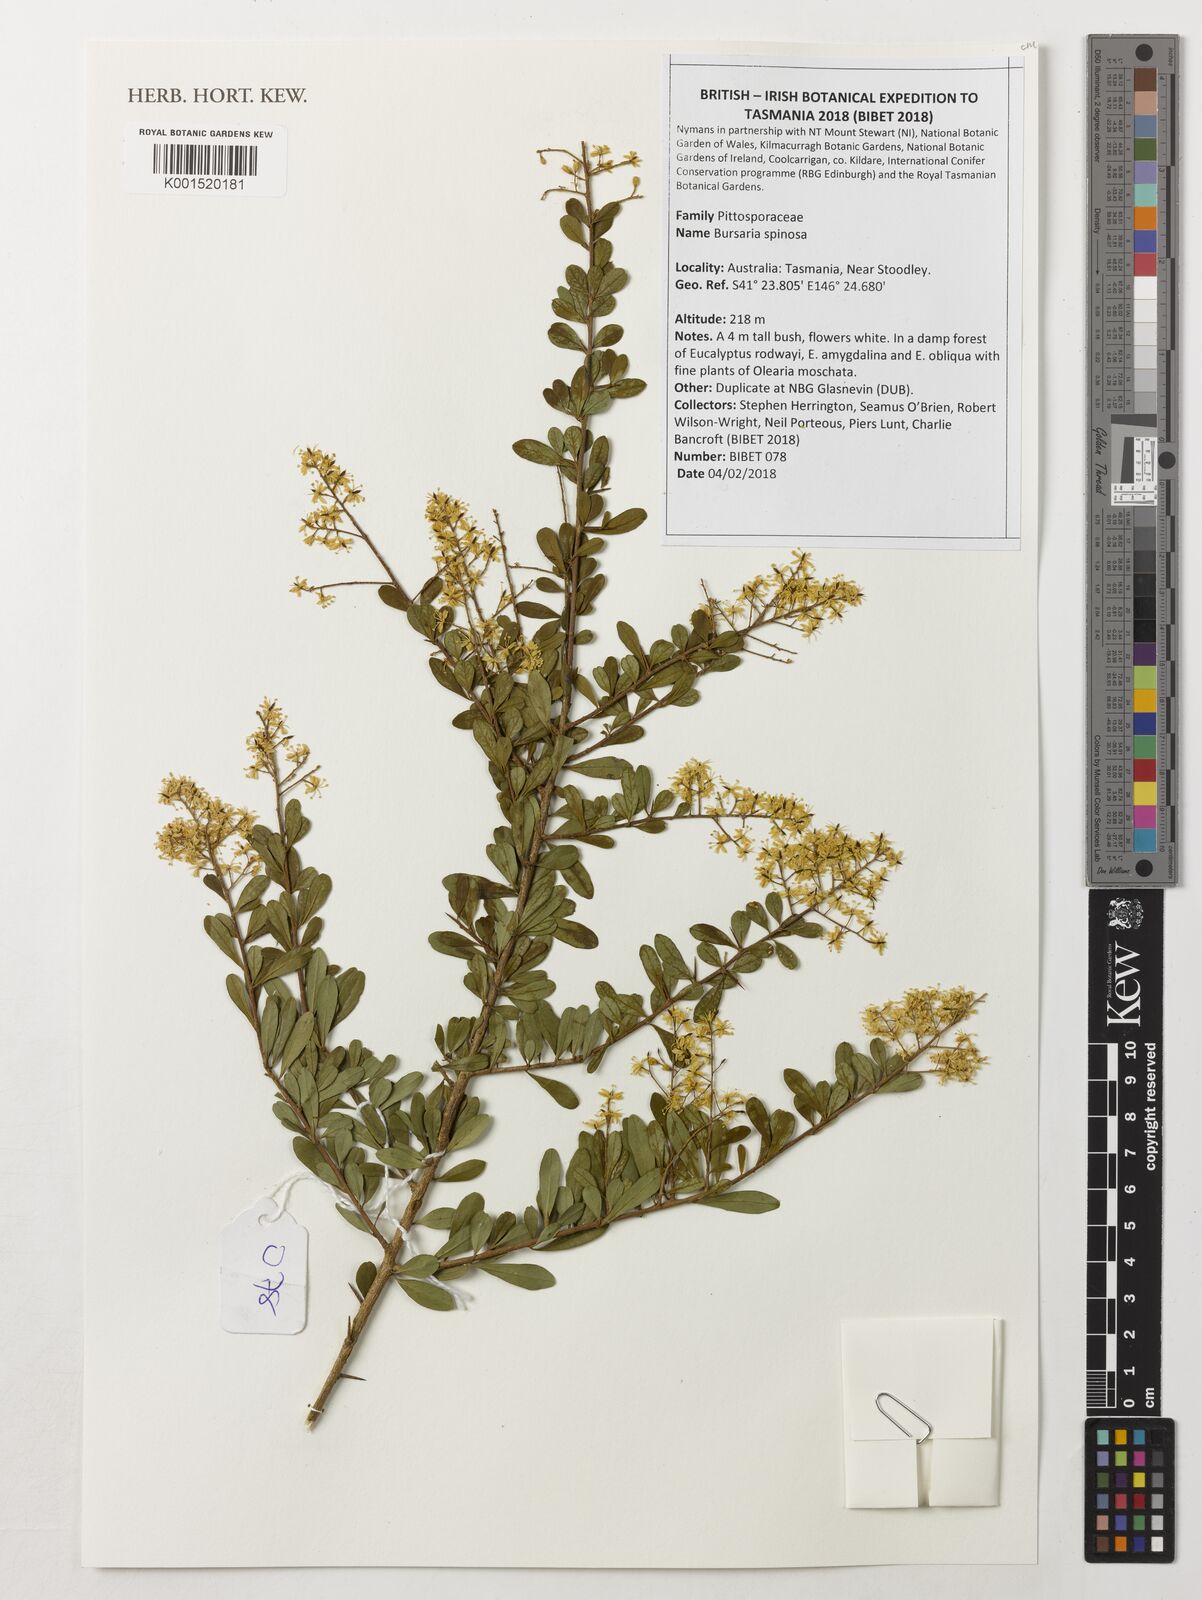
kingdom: Plantae
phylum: Tracheophyta
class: Magnoliopsida
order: Apiales
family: Pittosporaceae
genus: Bursaria
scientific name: Bursaria spinosa
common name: Australian blackthorn
